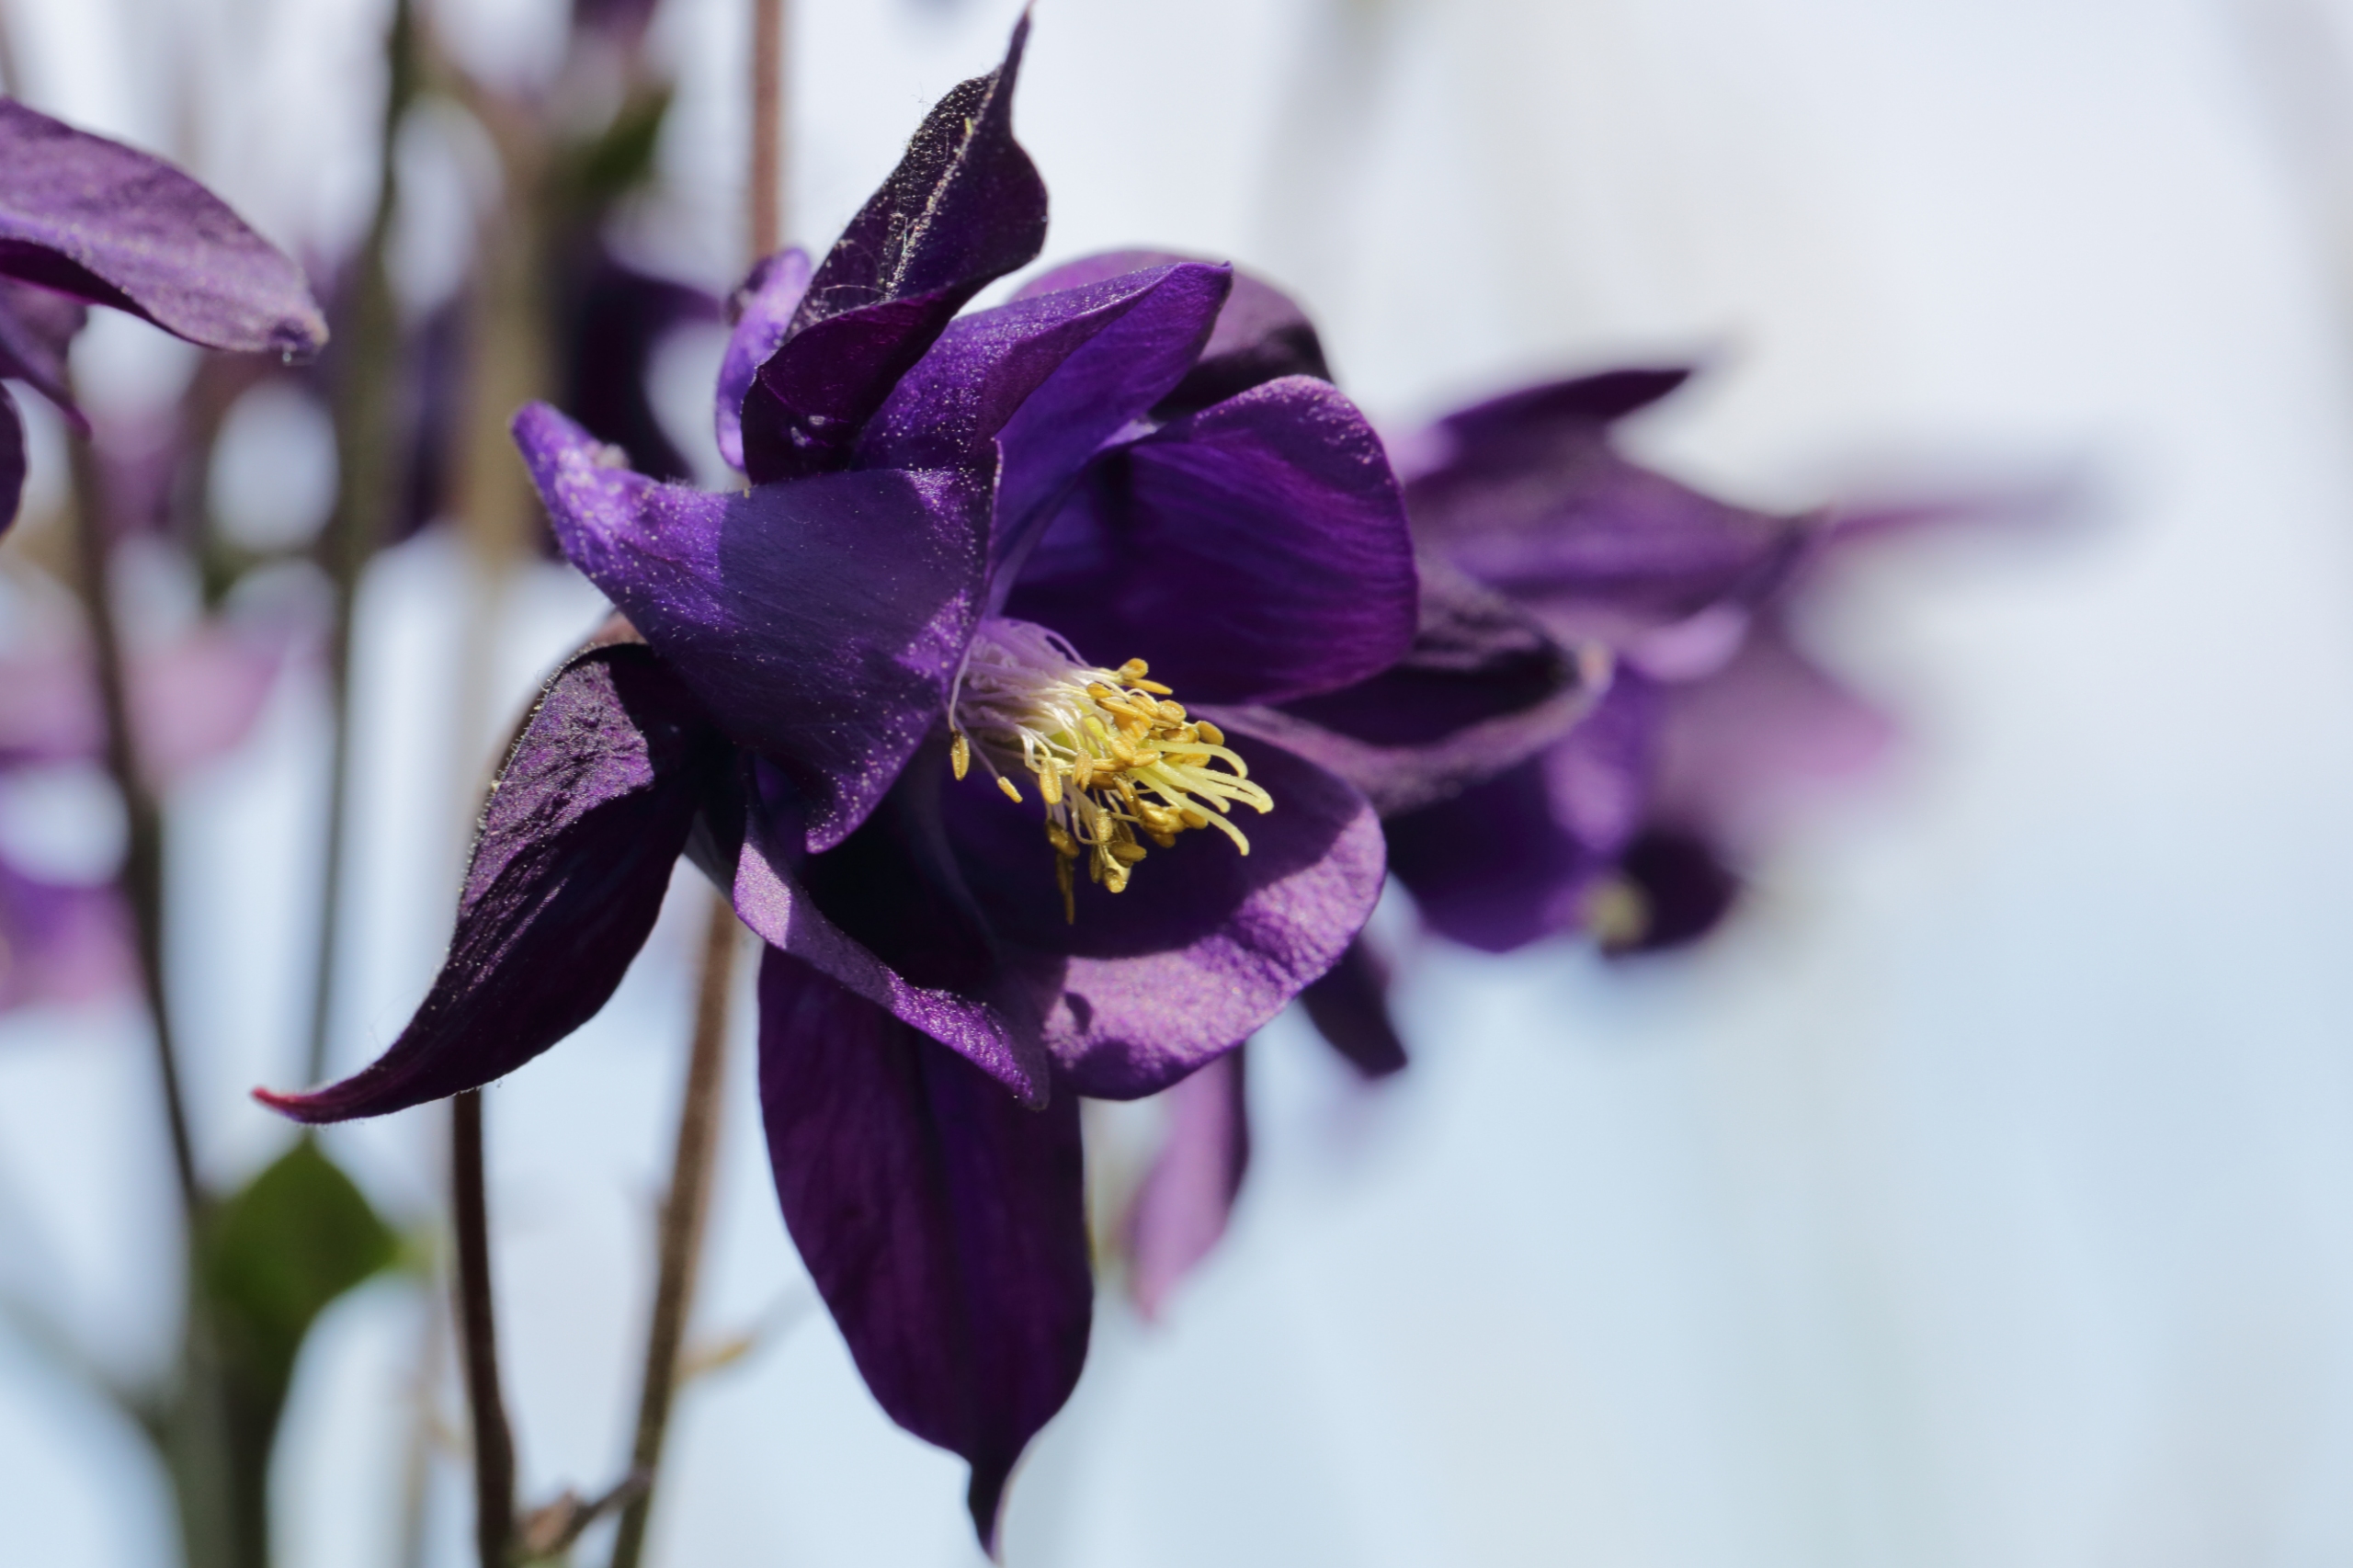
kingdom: Plantae
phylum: Tracheophyta
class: Magnoliopsida
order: Ranunculales
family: Ranunculaceae
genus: Aquilegia
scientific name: Aquilegia vulgaris
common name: Akeleje
